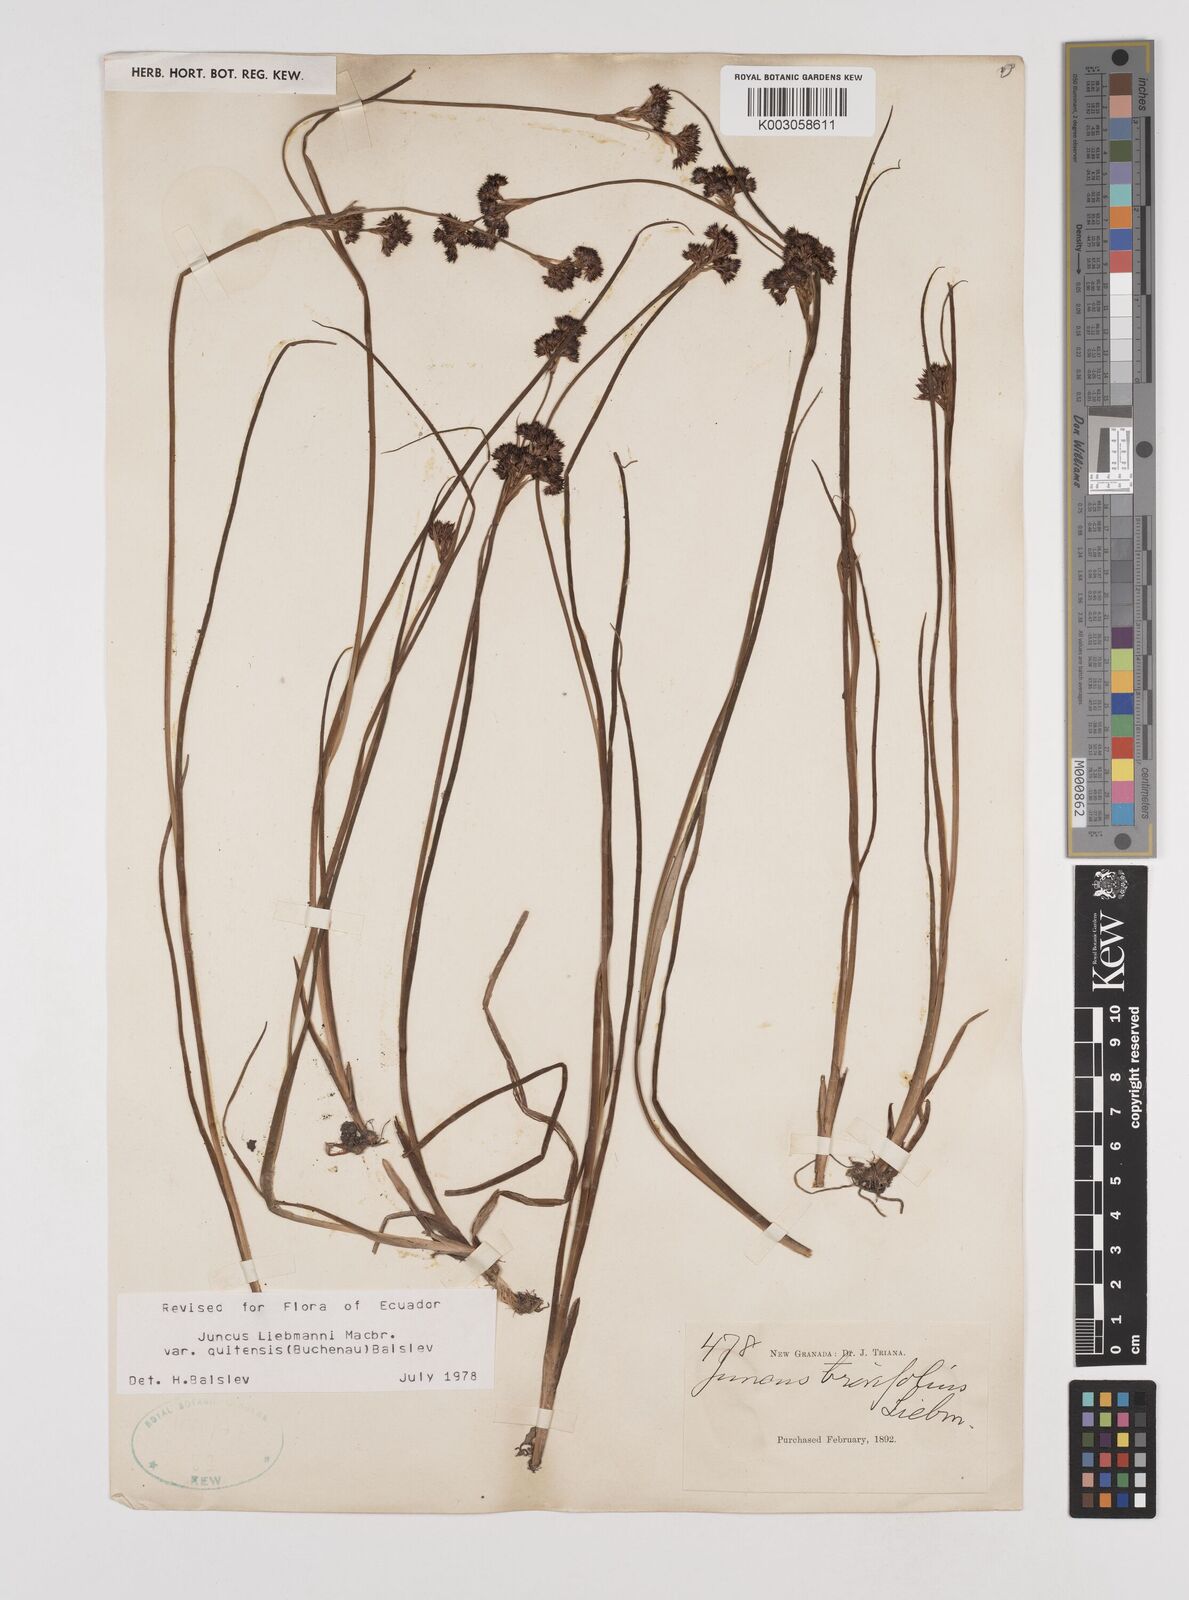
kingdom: Plantae
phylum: Tracheophyta
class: Liliopsida
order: Poales
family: Juncaceae
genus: Juncus
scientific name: Juncus liebmannii
